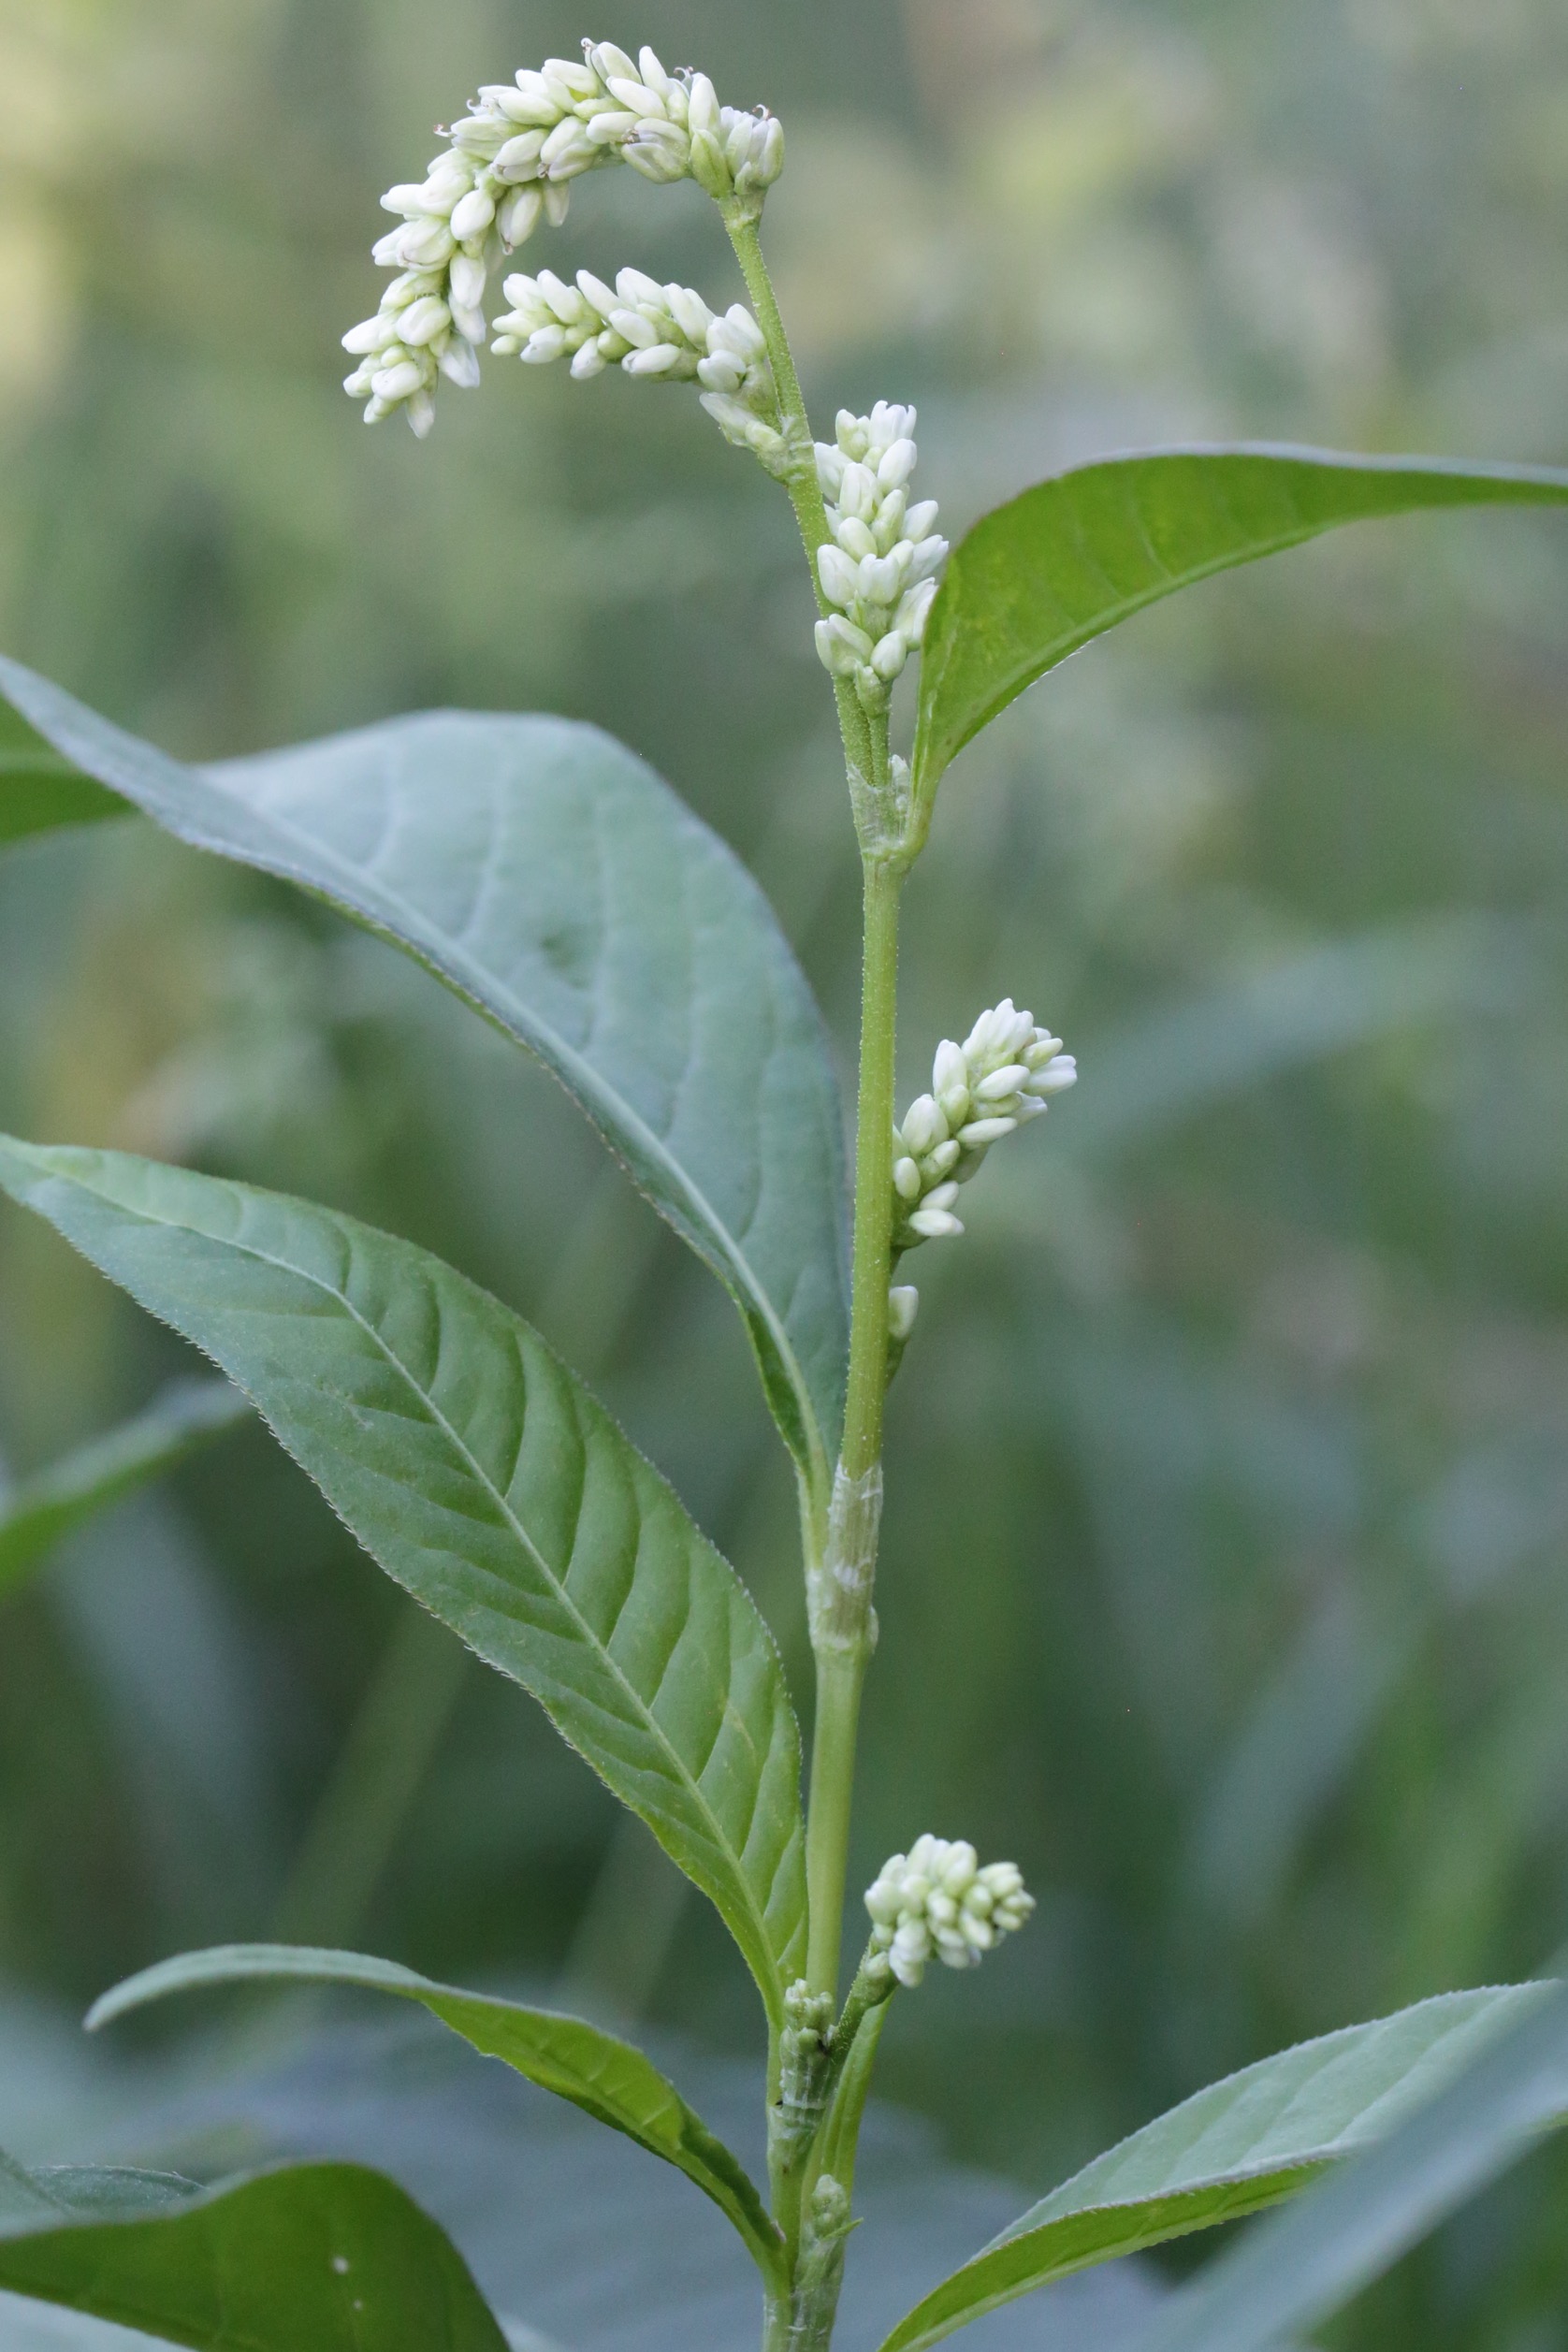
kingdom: Plantae
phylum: Tracheophyta
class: Magnoliopsida
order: Caryophyllales
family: Polygonaceae
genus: Persicaria
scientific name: Persicaria lapathifolia
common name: Knudet pileurt
